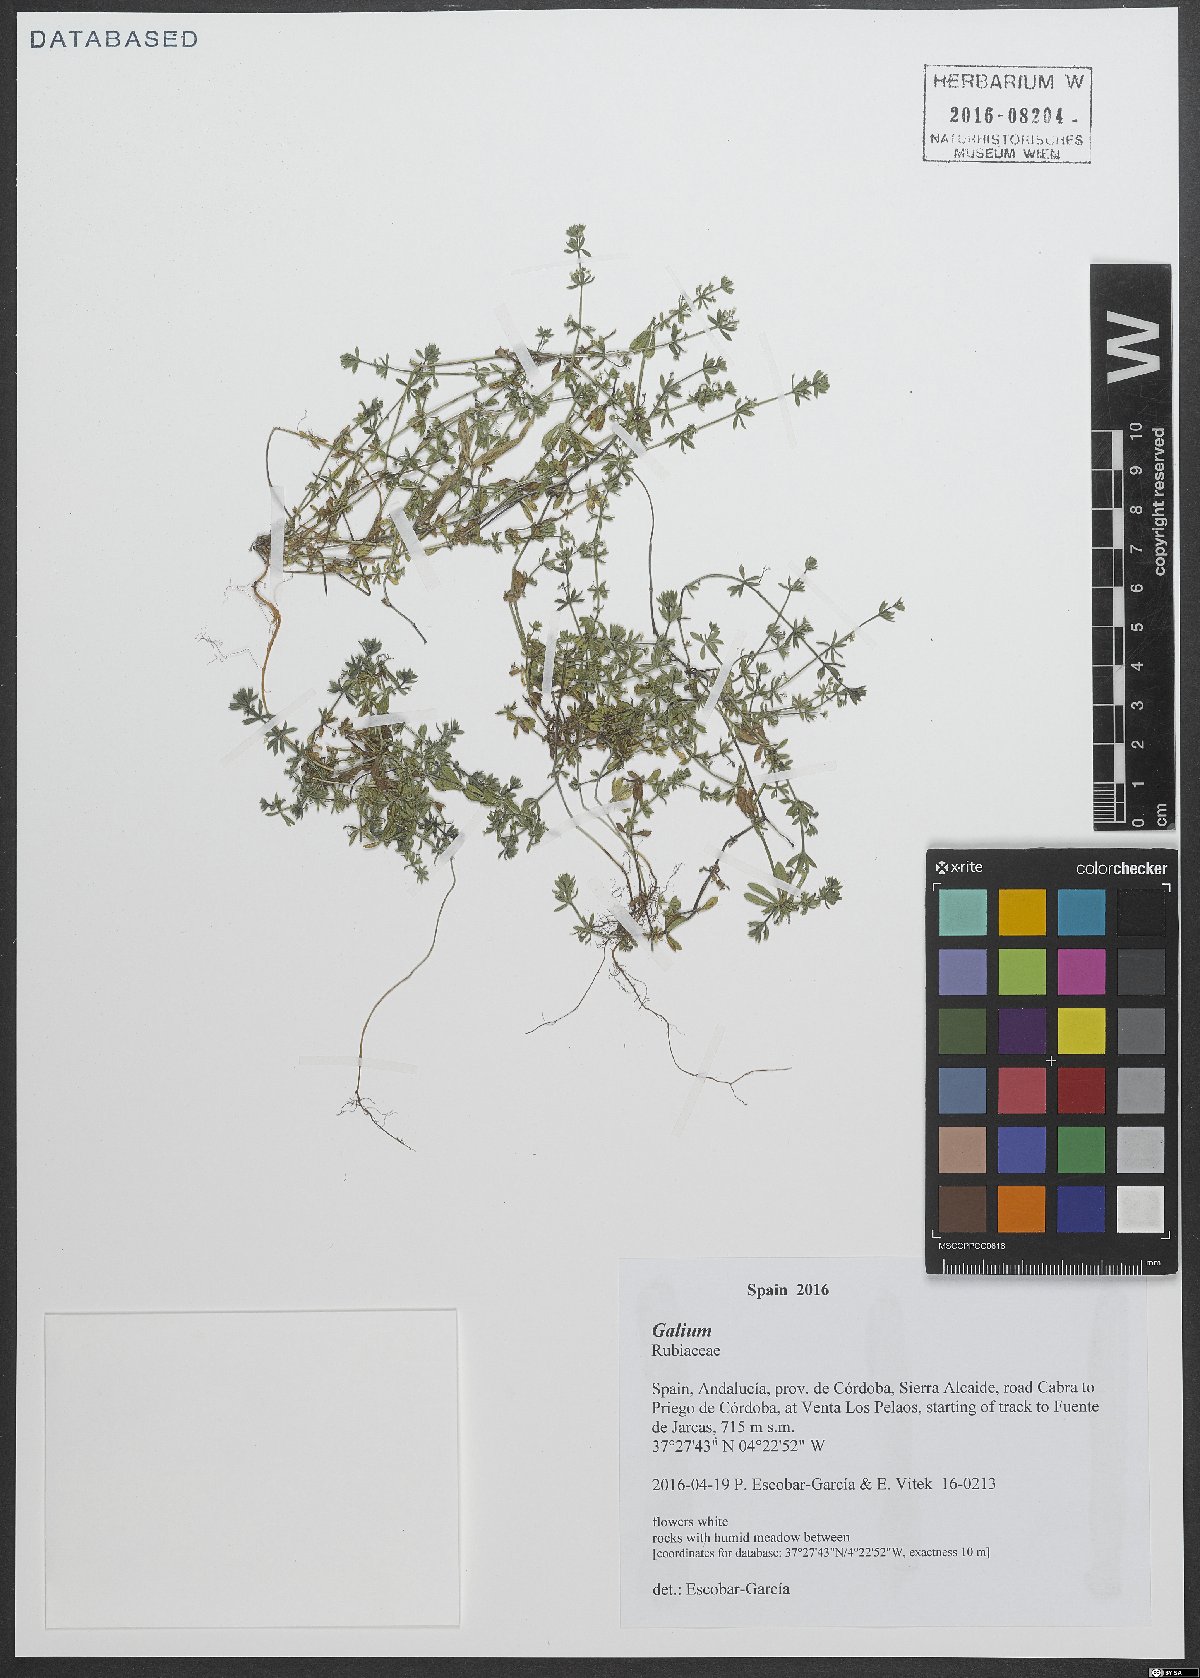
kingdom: Plantae
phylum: Tracheophyta
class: Magnoliopsida
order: Gentianales
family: Rubiaceae
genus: Galium
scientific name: Galium
